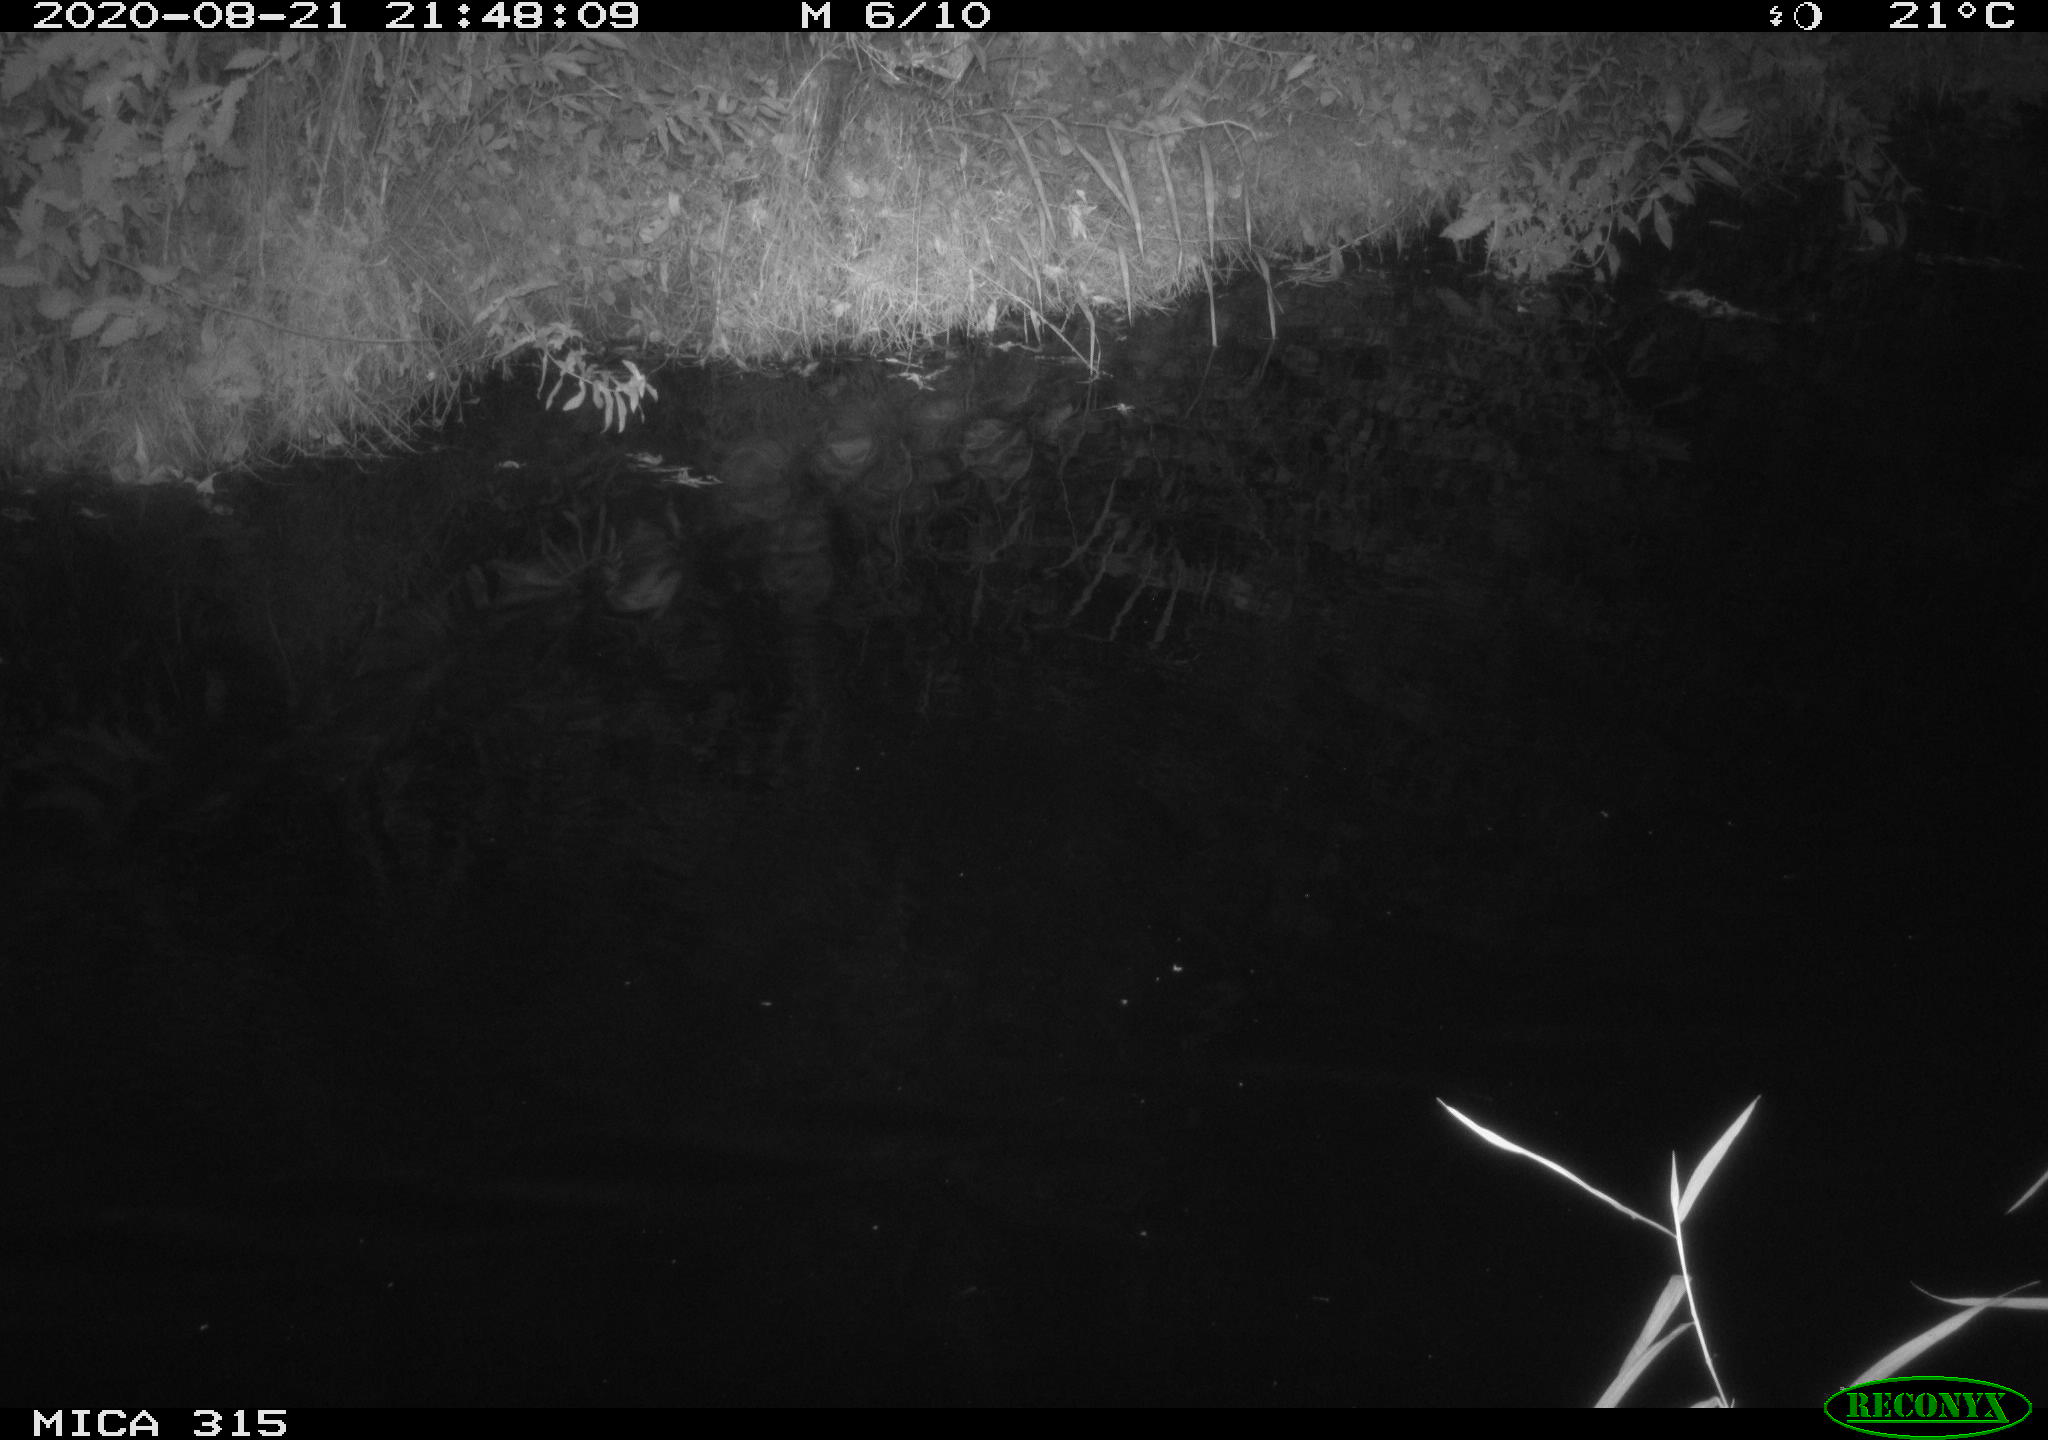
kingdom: Animalia
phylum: Chordata
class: Aves
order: Anseriformes
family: Anatidae
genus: Anas
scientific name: Anas platyrhynchos
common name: Mallard
